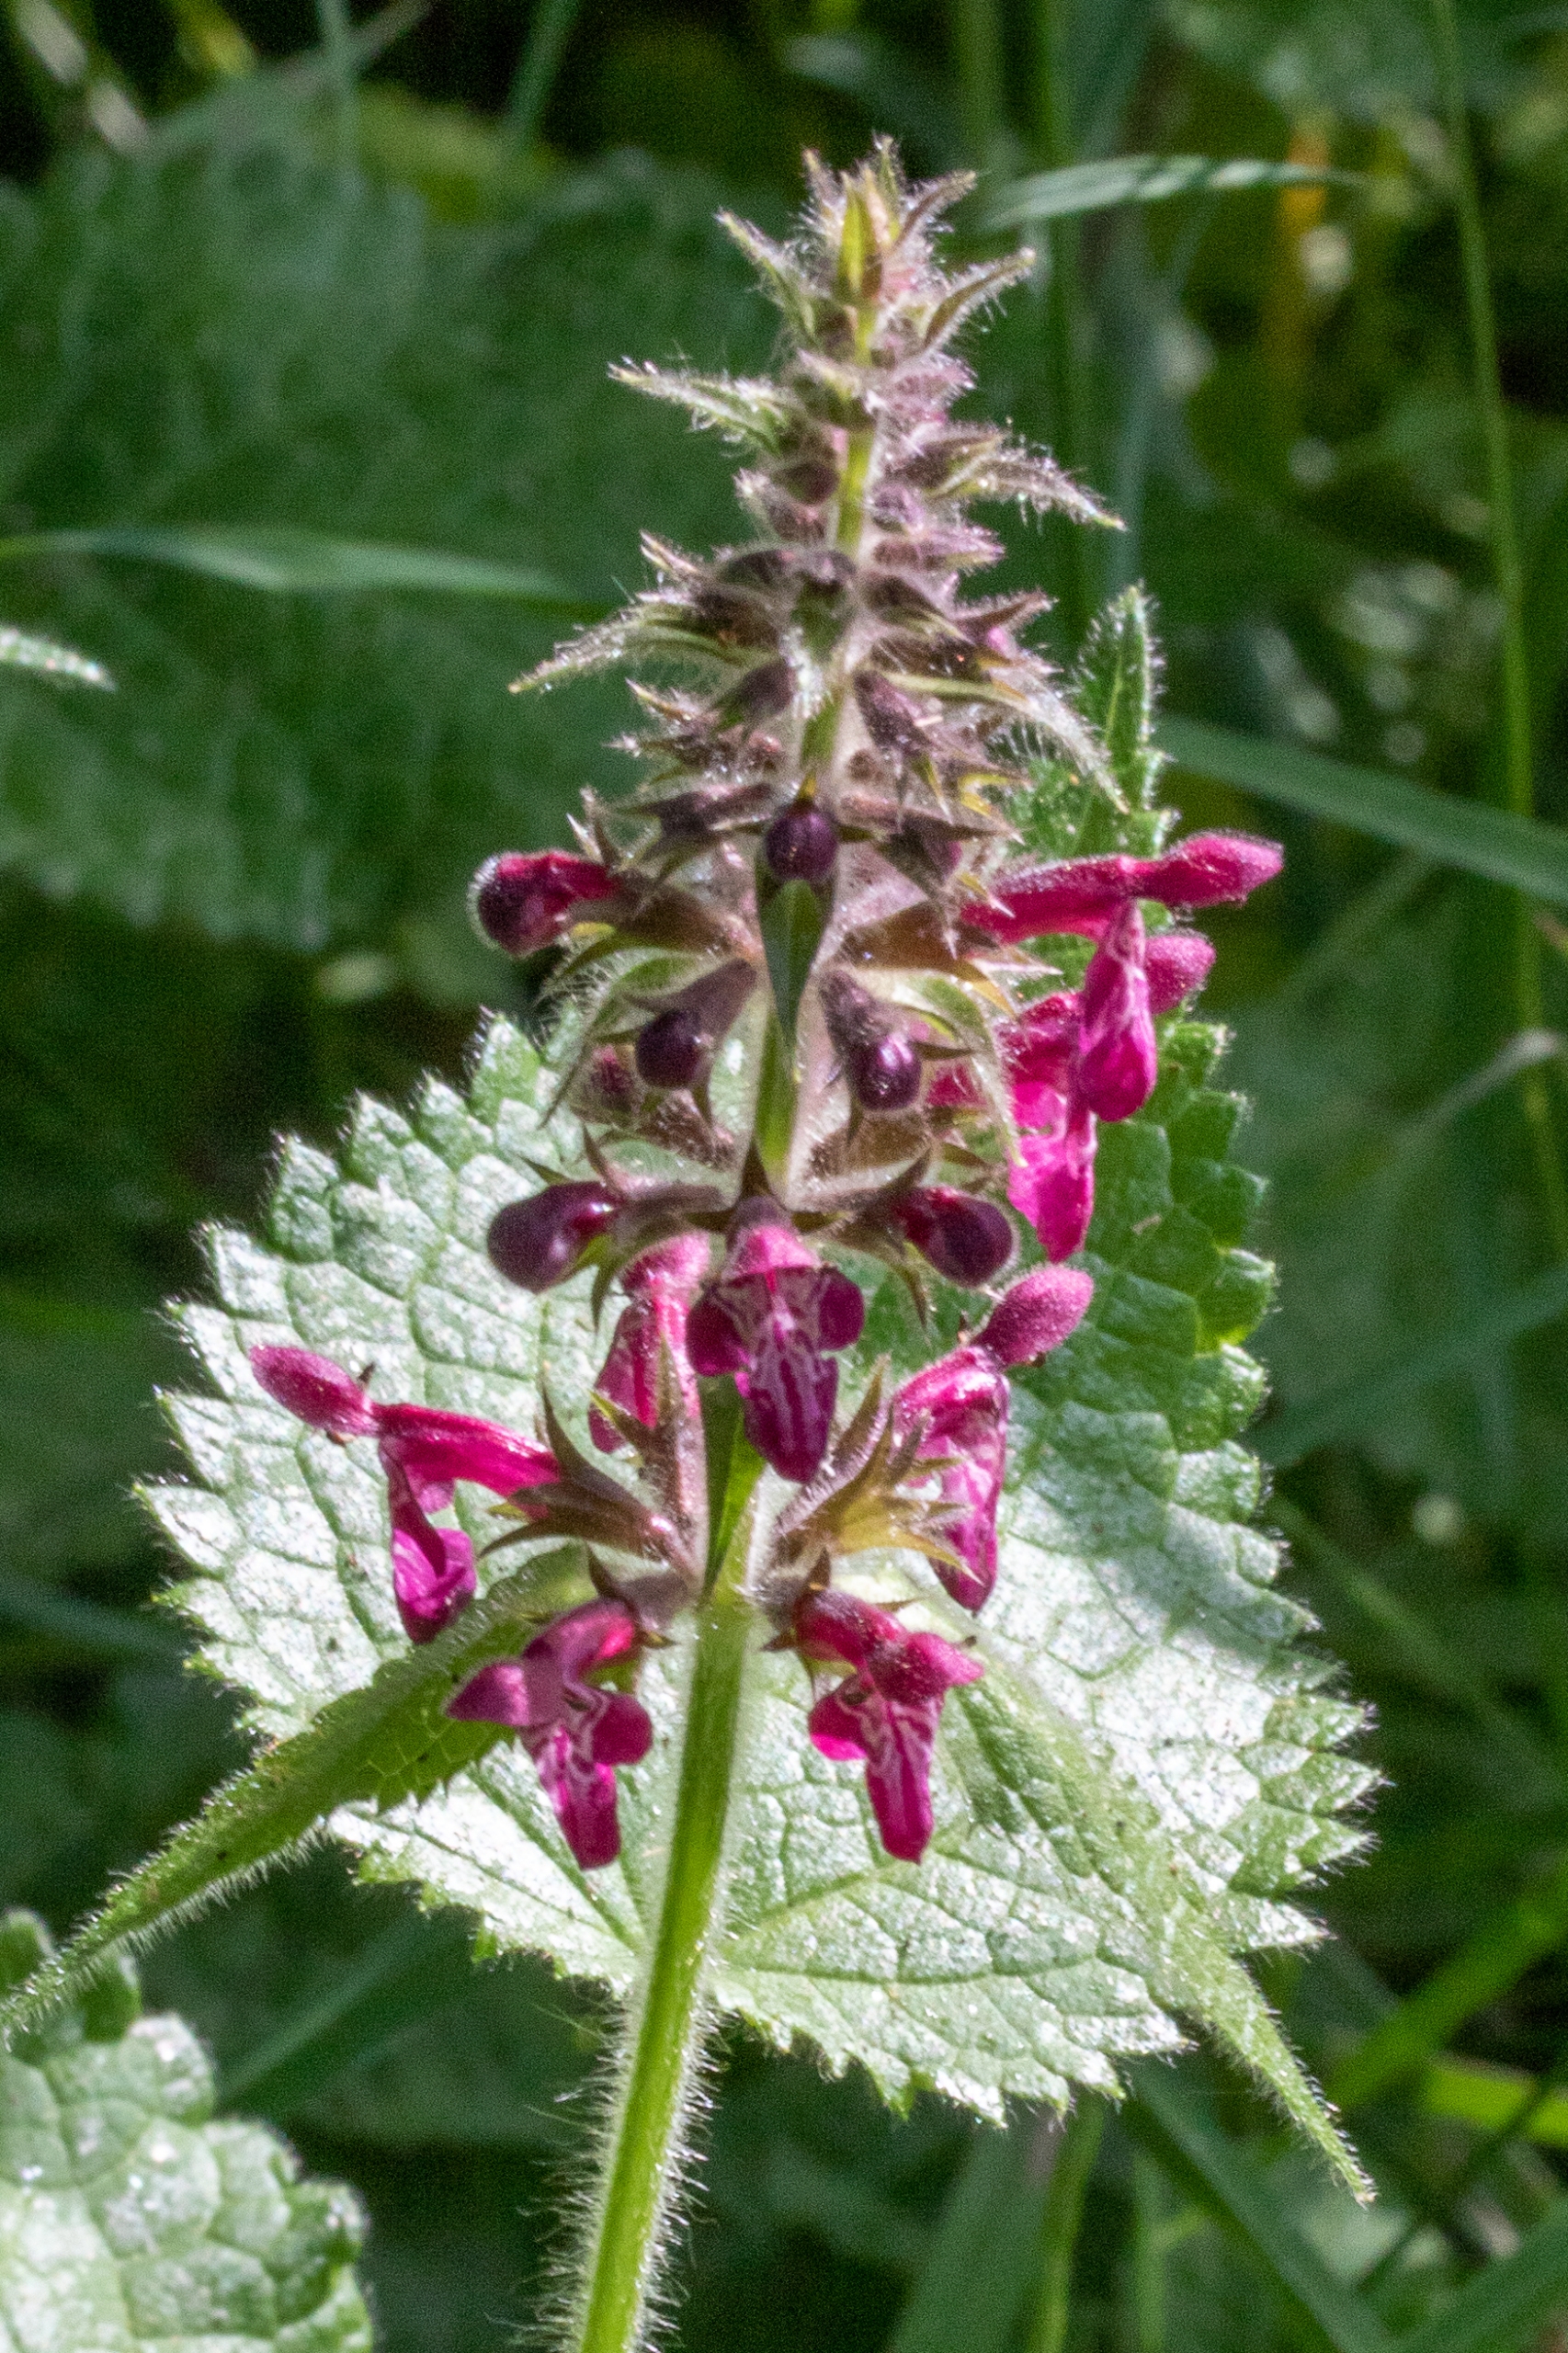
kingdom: Plantae
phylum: Tracheophyta
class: Magnoliopsida
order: Lamiales
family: Lamiaceae
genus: Stachys
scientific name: Stachys sylvatica
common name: Skov-galtetand
